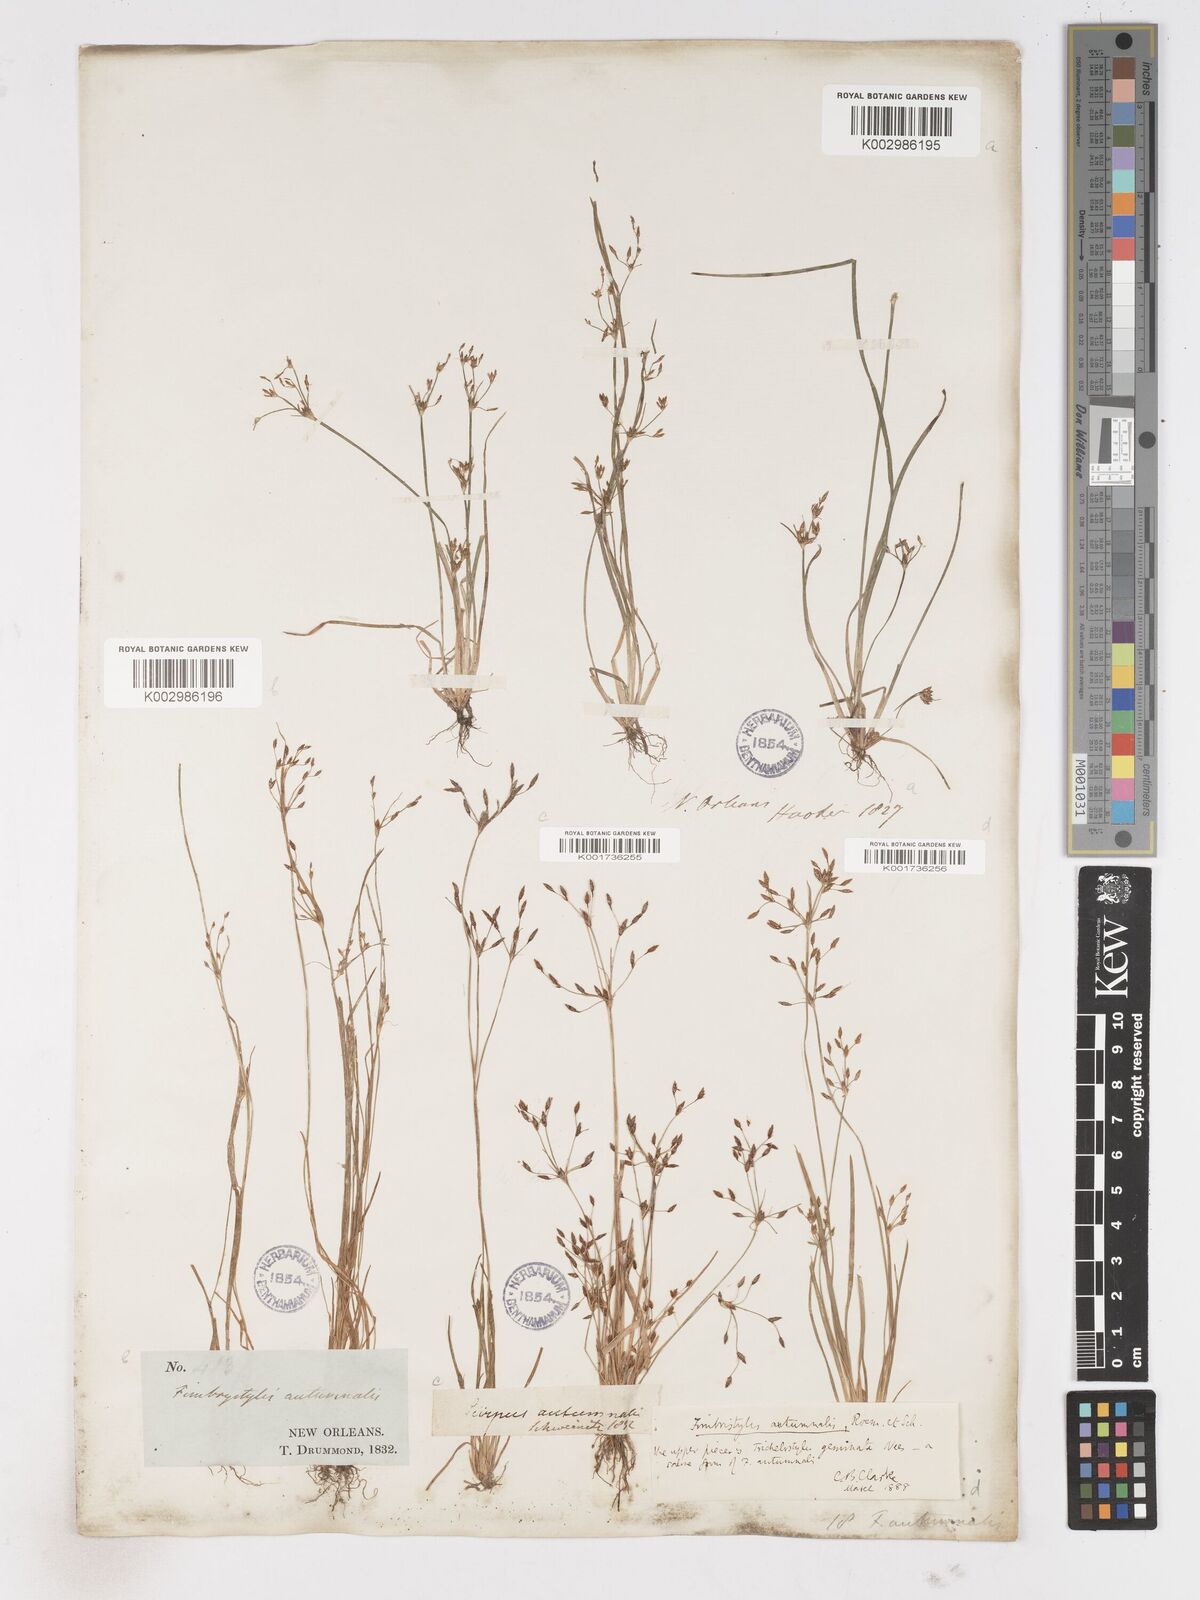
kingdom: Plantae
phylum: Tracheophyta
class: Liliopsida
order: Poales
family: Cyperaceae
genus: Fimbristylis
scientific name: Fimbristylis autumnalis
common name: Slender fimbristylis
